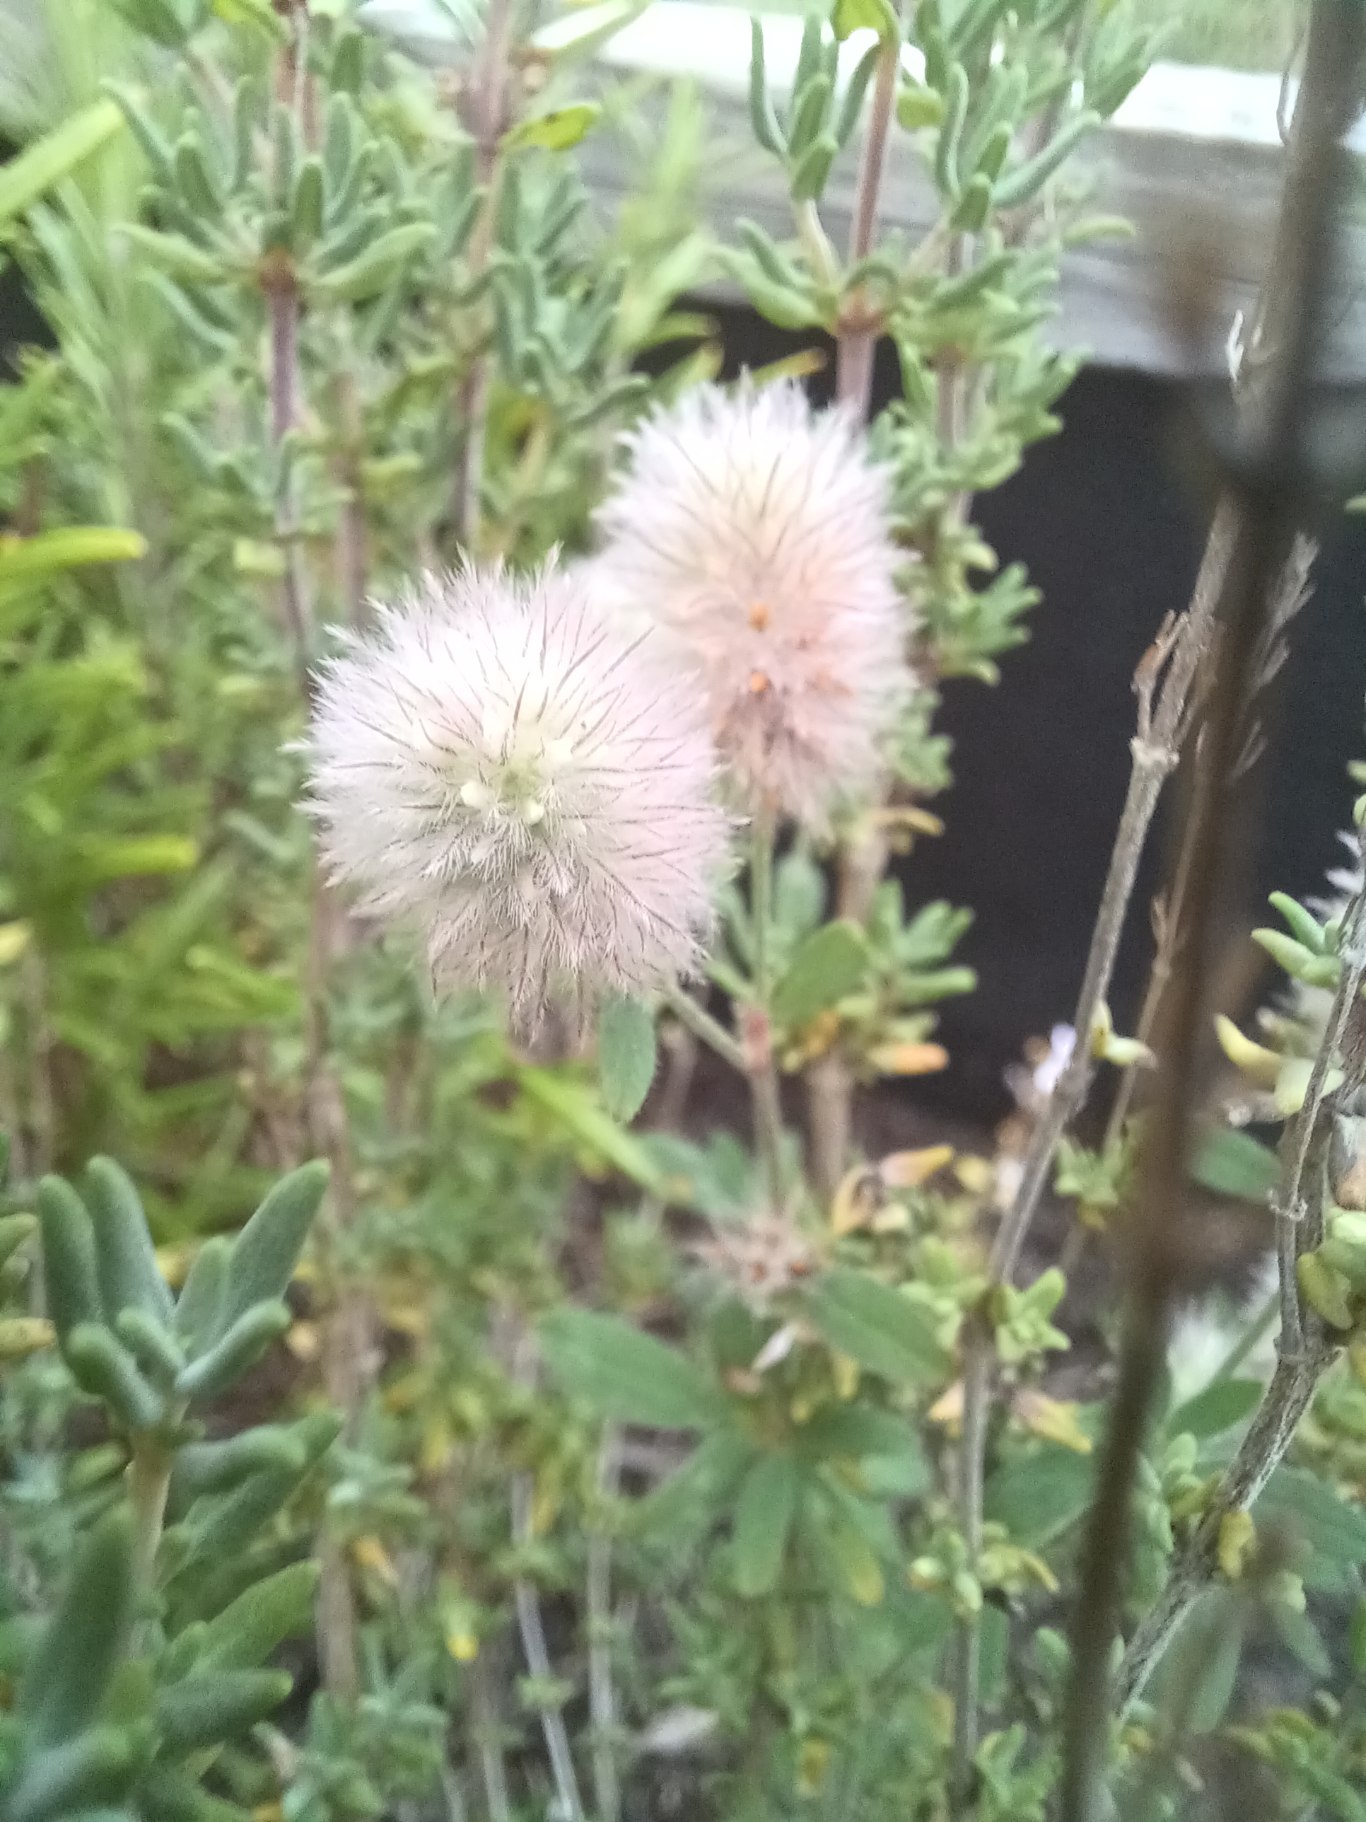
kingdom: Plantae
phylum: Tracheophyta
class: Magnoliopsida
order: Fabales
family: Fabaceae
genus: Trifolium
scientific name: Trifolium arvense
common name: Hare-kløver
